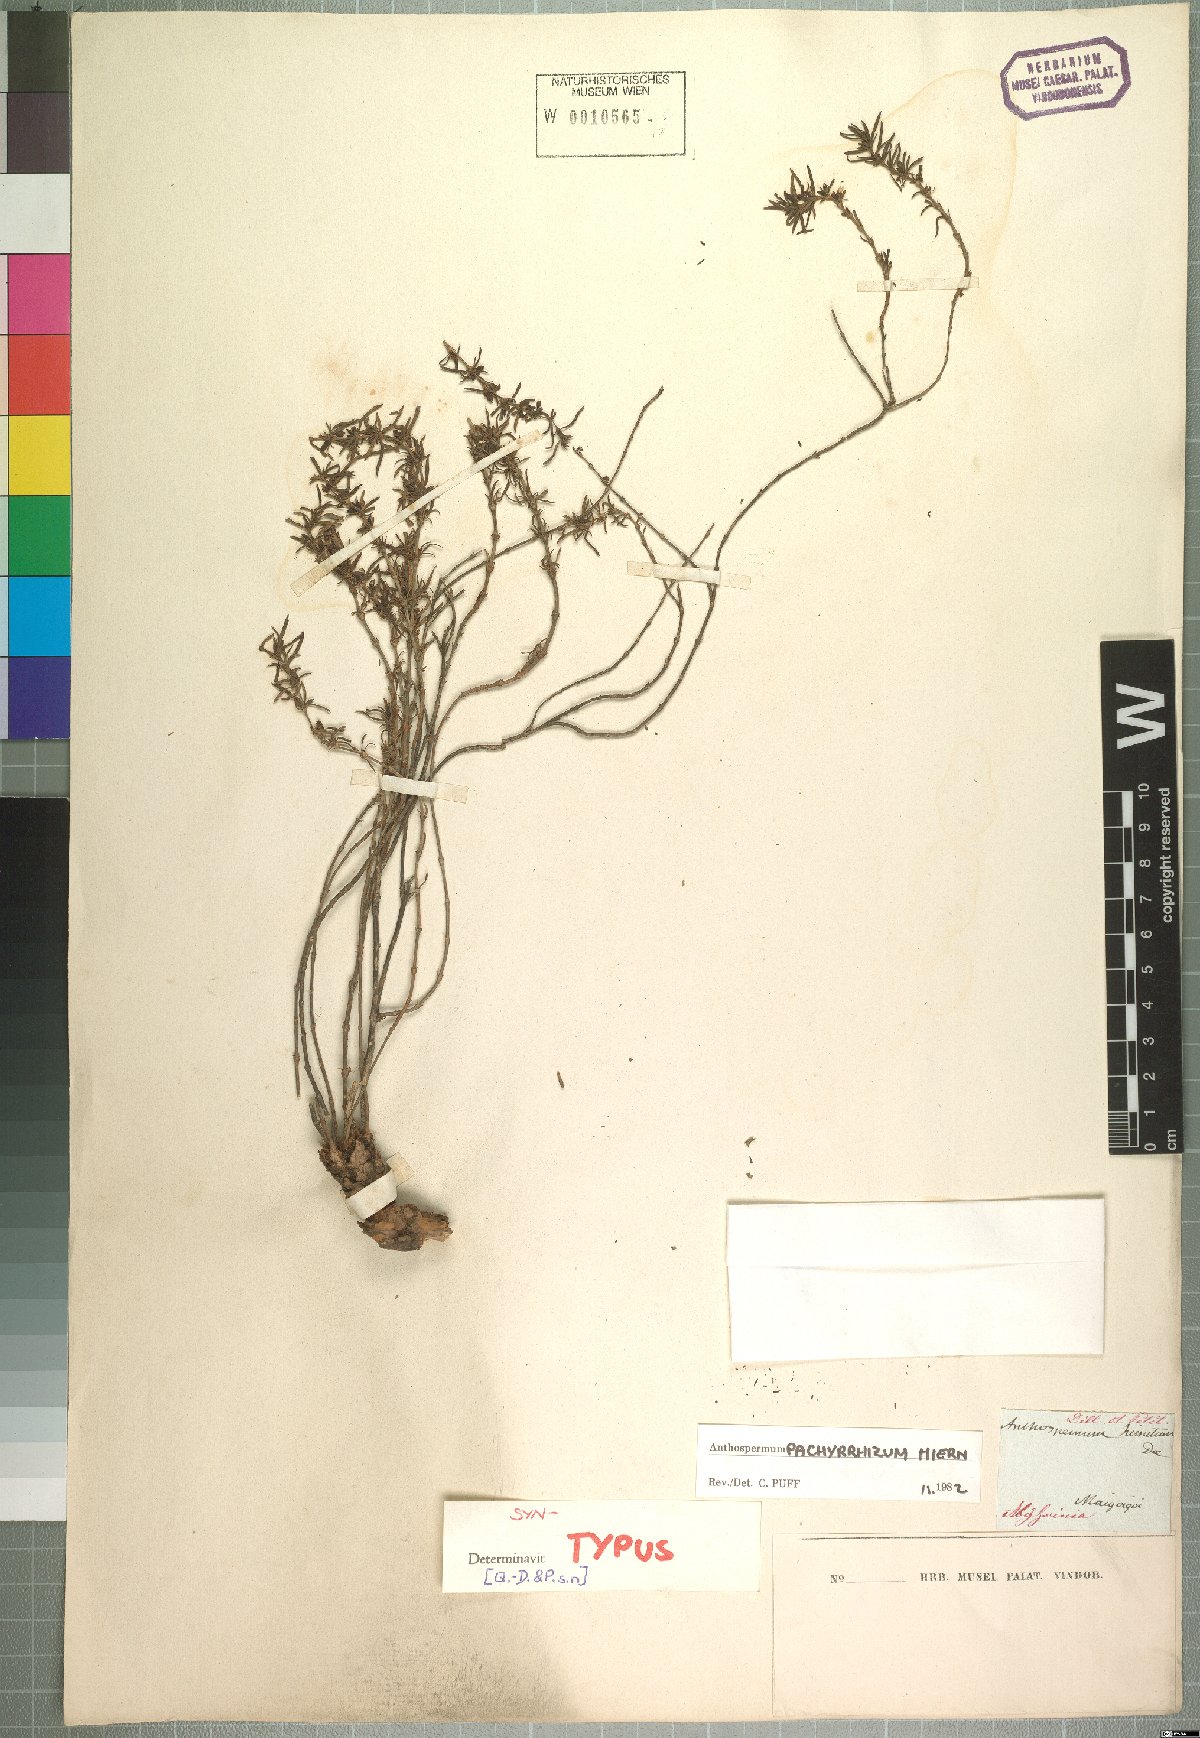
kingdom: Plantae
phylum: Tracheophyta
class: Magnoliopsida
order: Gentianales
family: Rubiaceae
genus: Anthospermum
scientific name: Anthospermum pachyrrhizum
